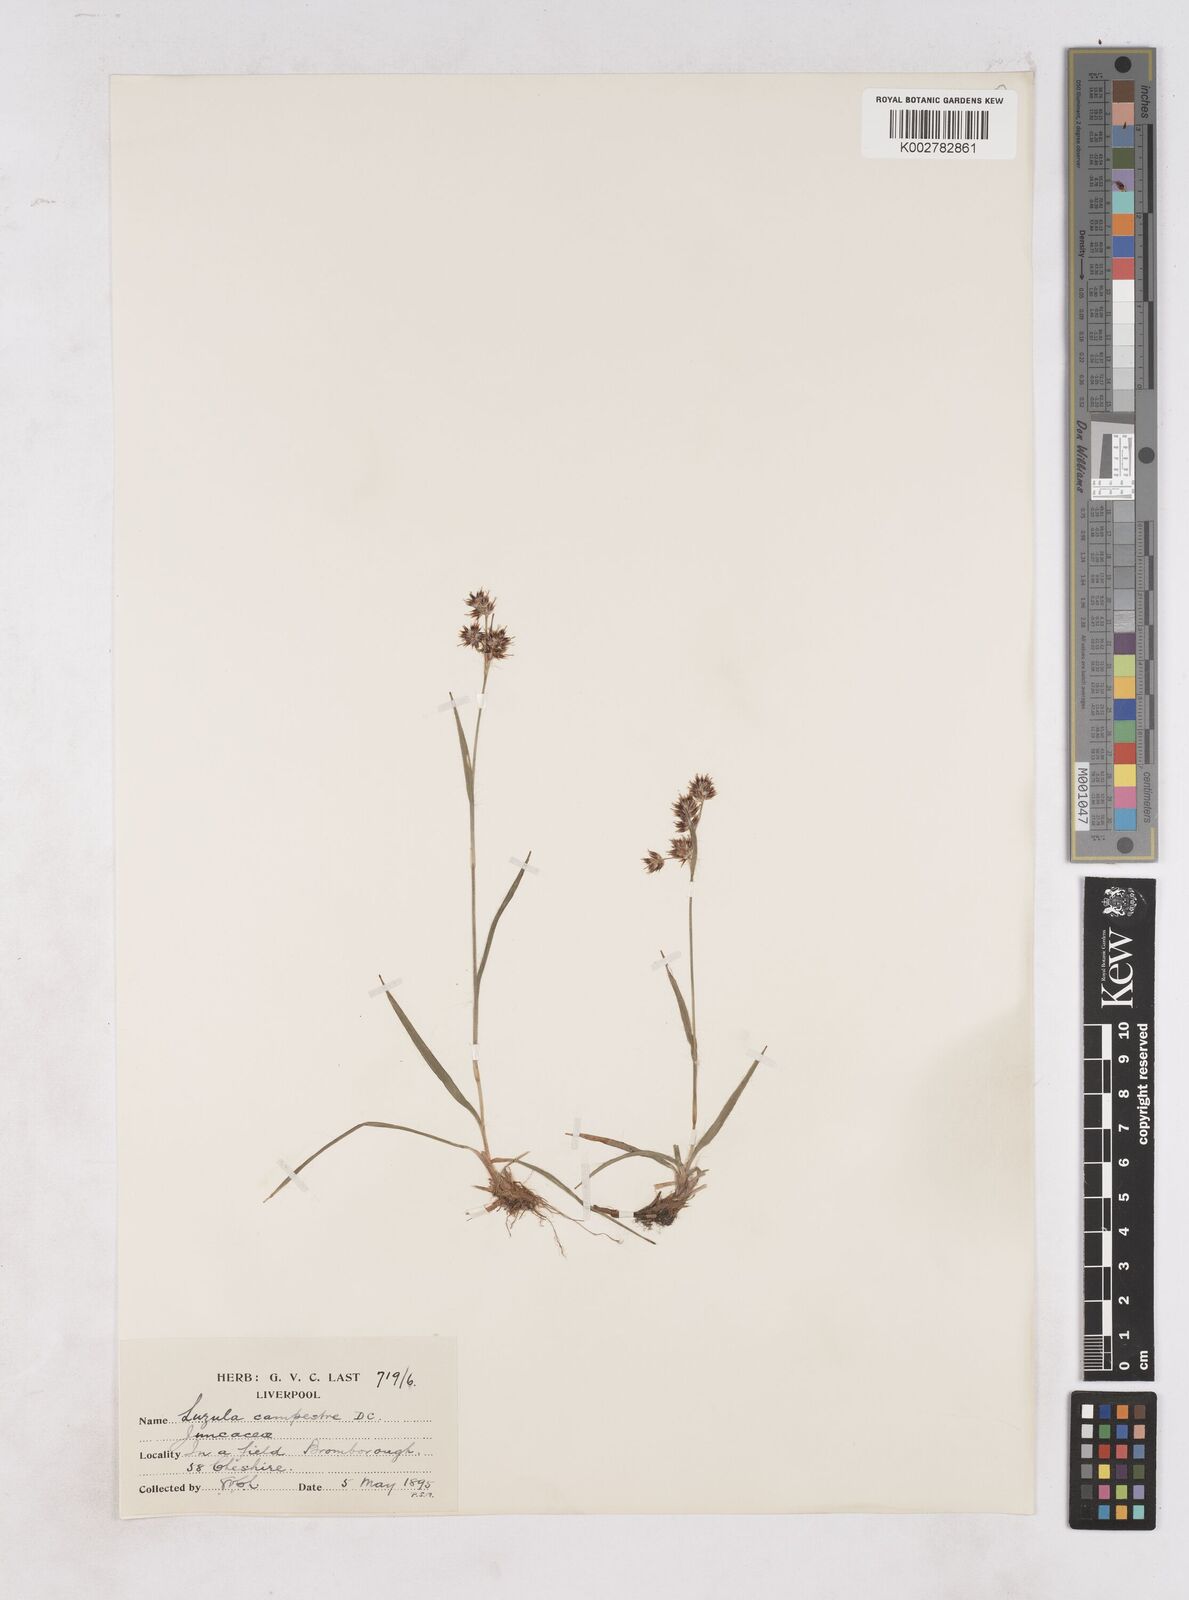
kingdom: Plantae
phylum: Tracheophyta
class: Liliopsida
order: Poales
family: Juncaceae
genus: Luzula
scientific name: Luzula campestris
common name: Field wood-rush
